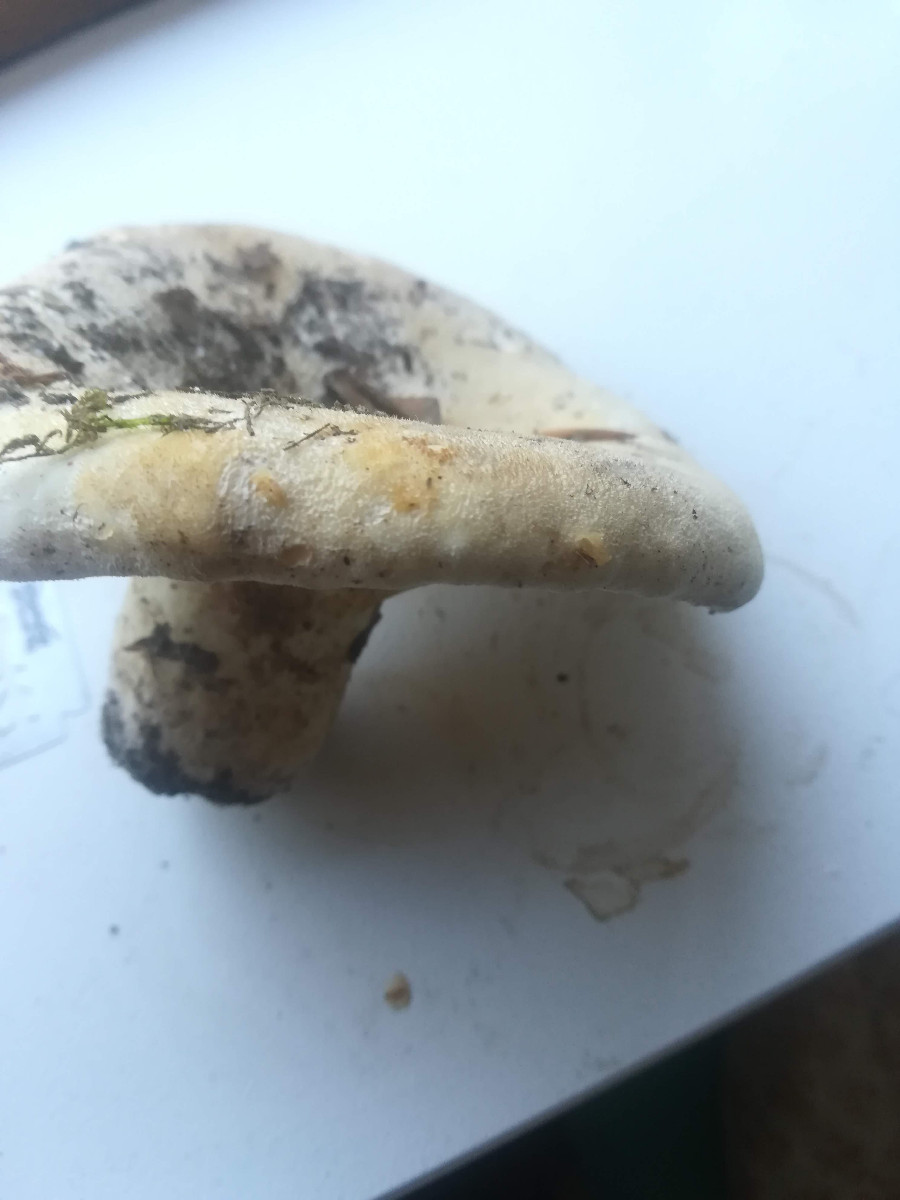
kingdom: Fungi
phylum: Basidiomycota
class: Agaricomycetes
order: Russulales
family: Russulaceae
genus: Lactifluus
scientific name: Lactifluus vellereus
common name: hvidfiltet mælkehat
